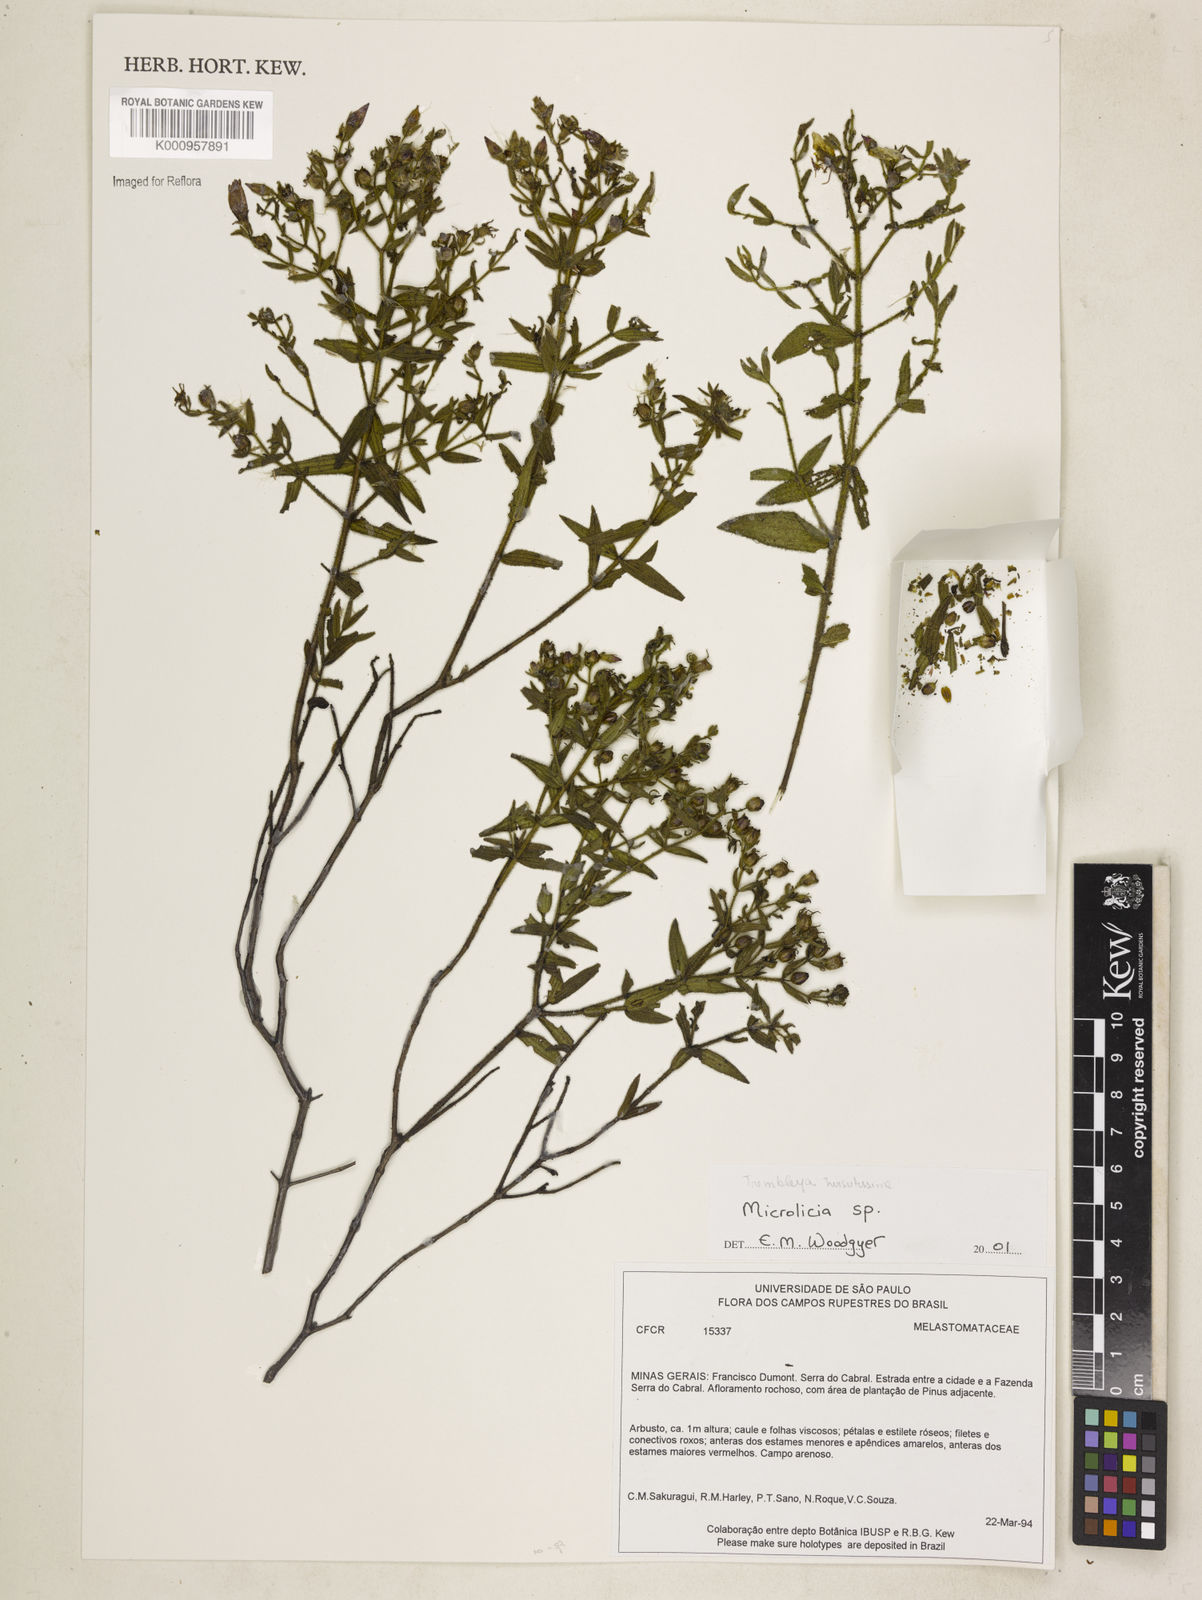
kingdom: Plantae
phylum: Tracheophyta
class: Magnoliopsida
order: Myrtales
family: Melastomataceae
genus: Microlicia
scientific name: Microlicia
